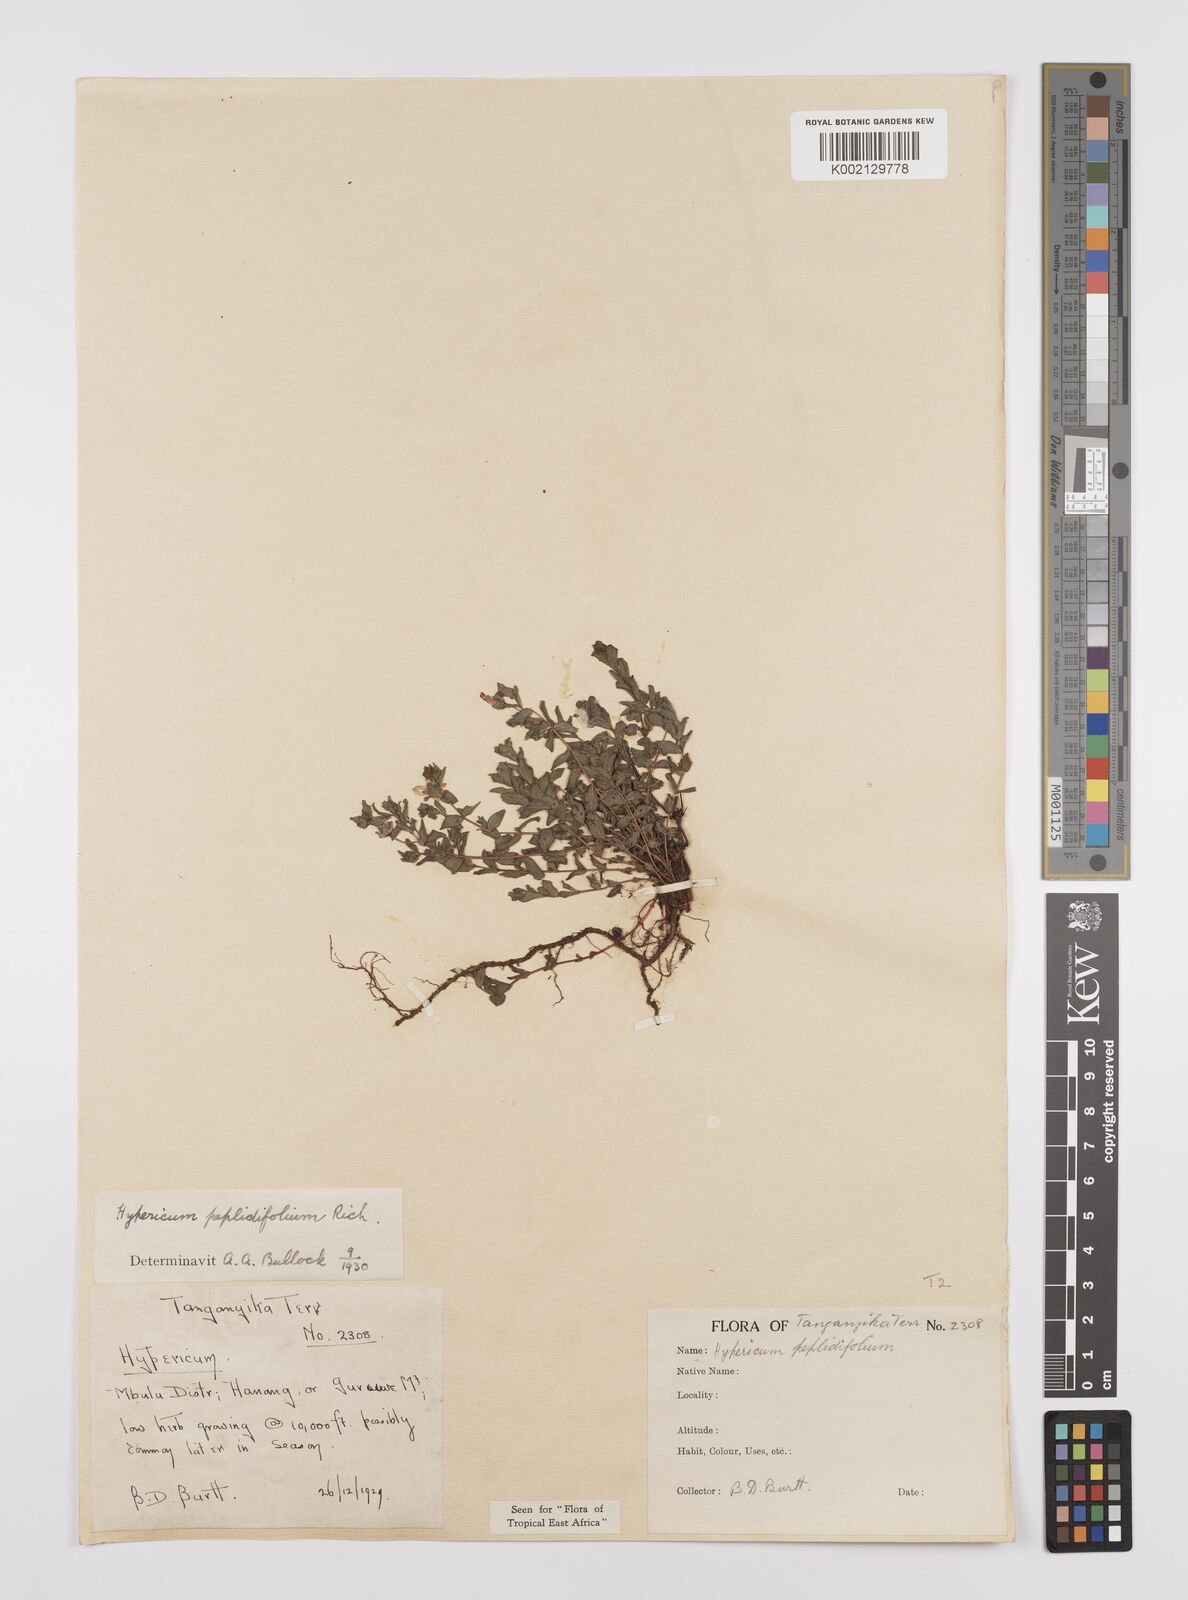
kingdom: Plantae
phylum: Tracheophyta
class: Magnoliopsida
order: Malpighiales
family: Hypericaceae
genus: Hypericum
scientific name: Hypericum peplidifolium
